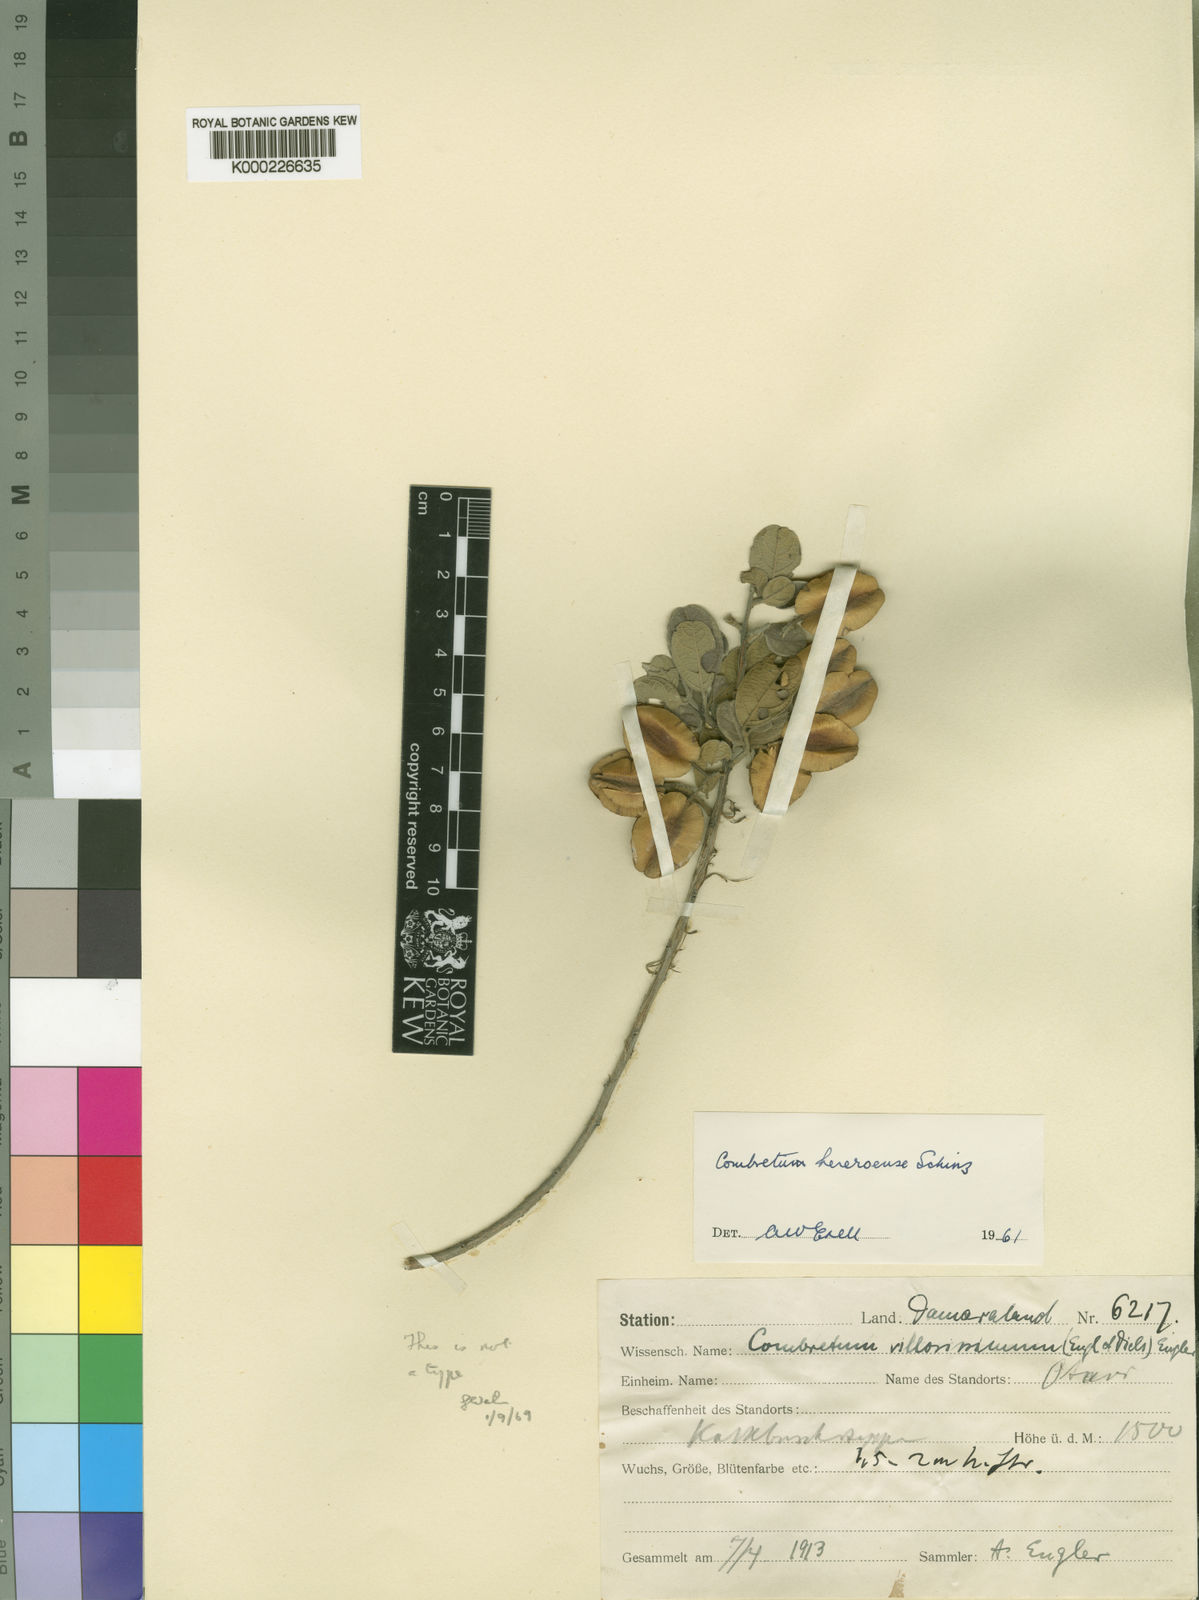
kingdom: Plantae
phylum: Tracheophyta
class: Magnoliopsida
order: Myrtales
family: Combretaceae
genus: Combretum
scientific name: Combretum hereroense
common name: Russet bushwillow
